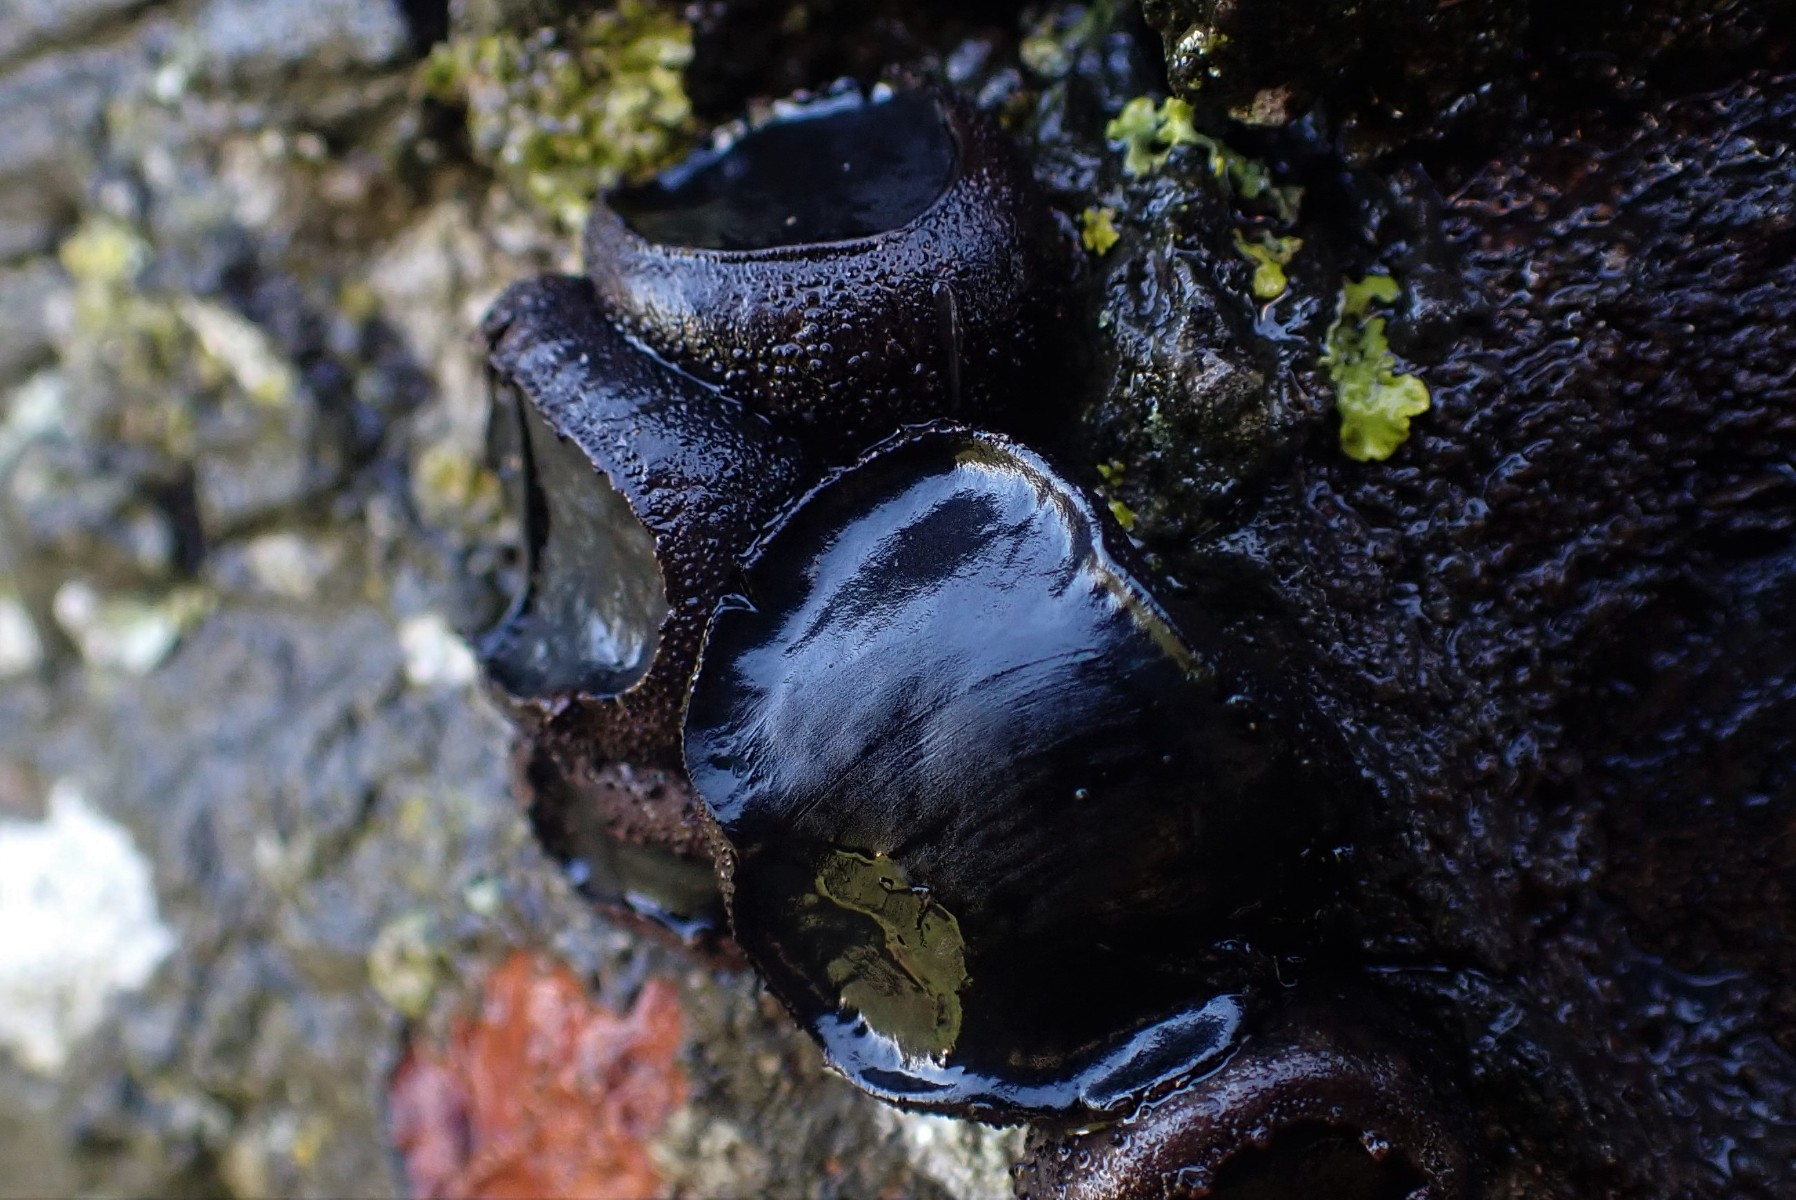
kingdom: Fungi
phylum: Ascomycota
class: Leotiomycetes
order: Phacidiales
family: Phacidiaceae
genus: Bulgaria
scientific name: Bulgaria inquinans
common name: afsmittende topsvamp
